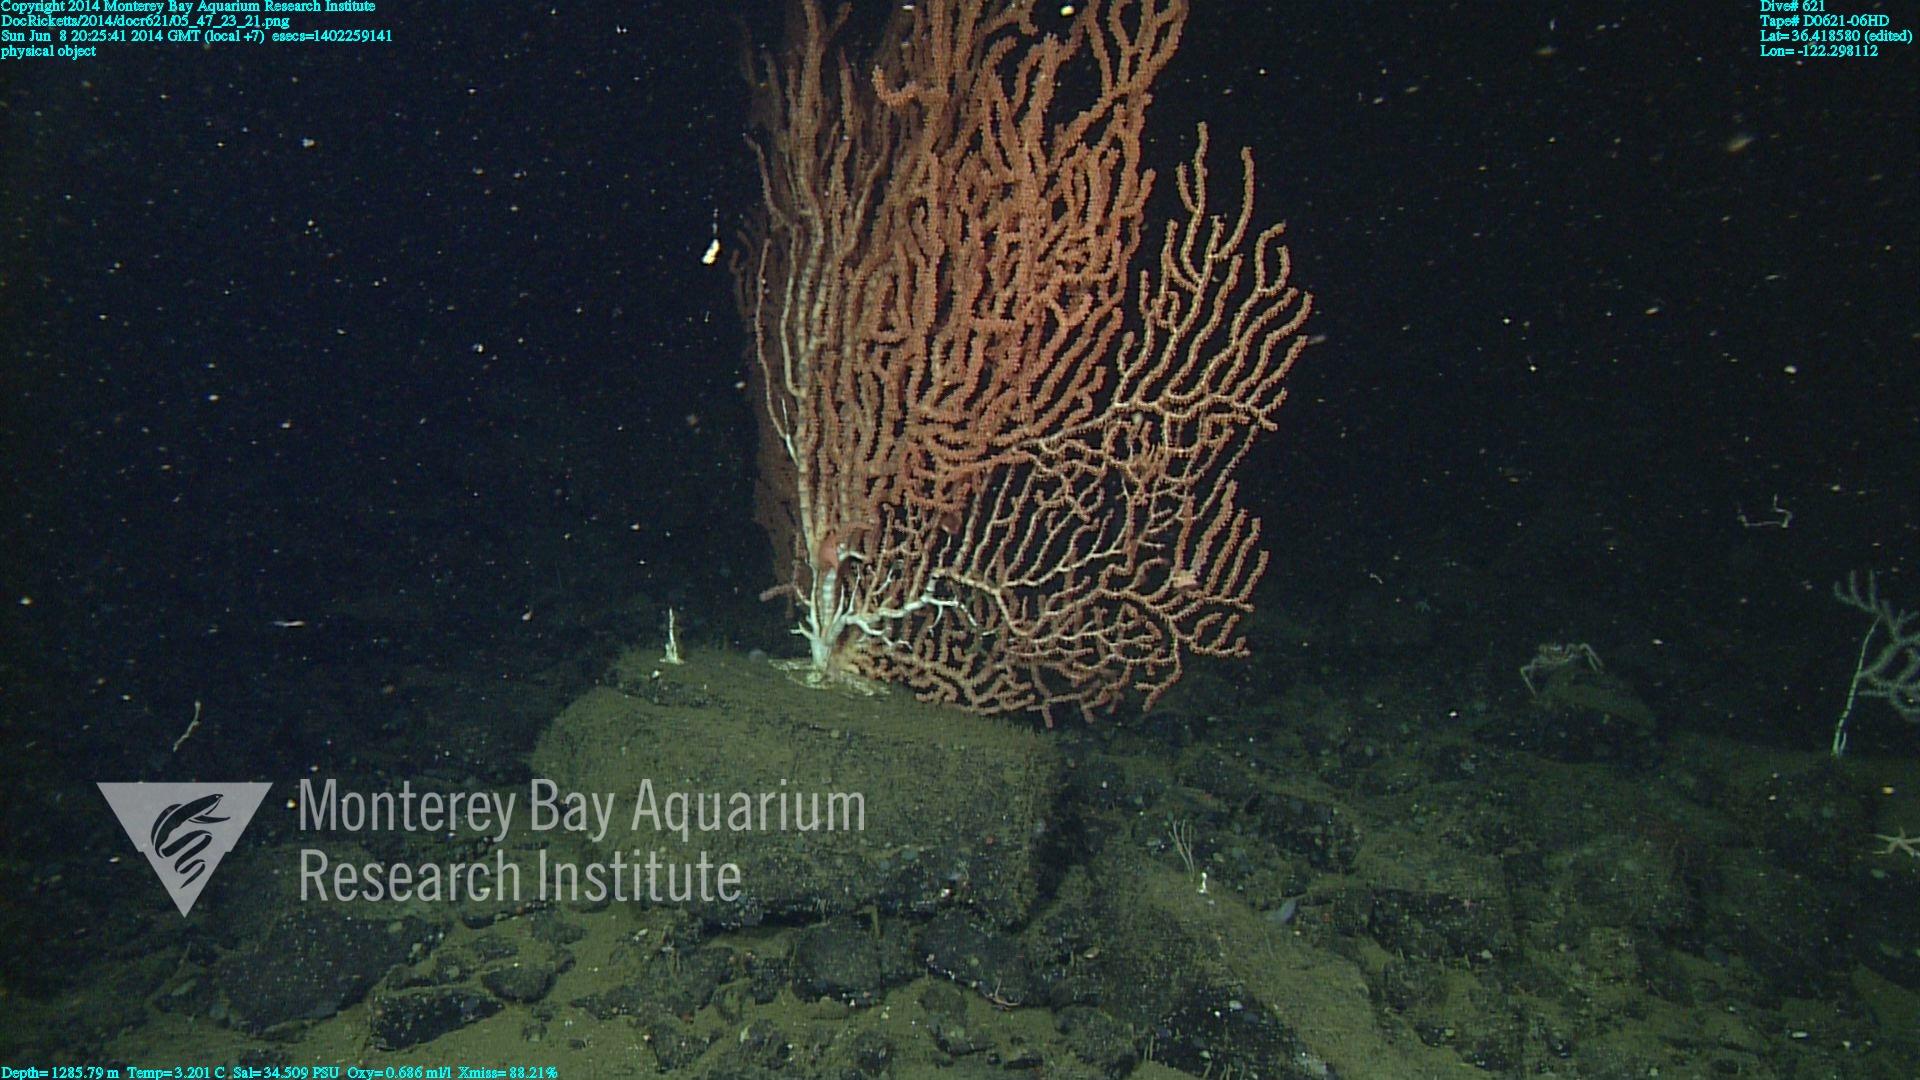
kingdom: Animalia
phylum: Cnidaria
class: Anthozoa
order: Scleralcyonacea
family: Keratoisididae
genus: Keratoisis
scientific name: Keratoisis
